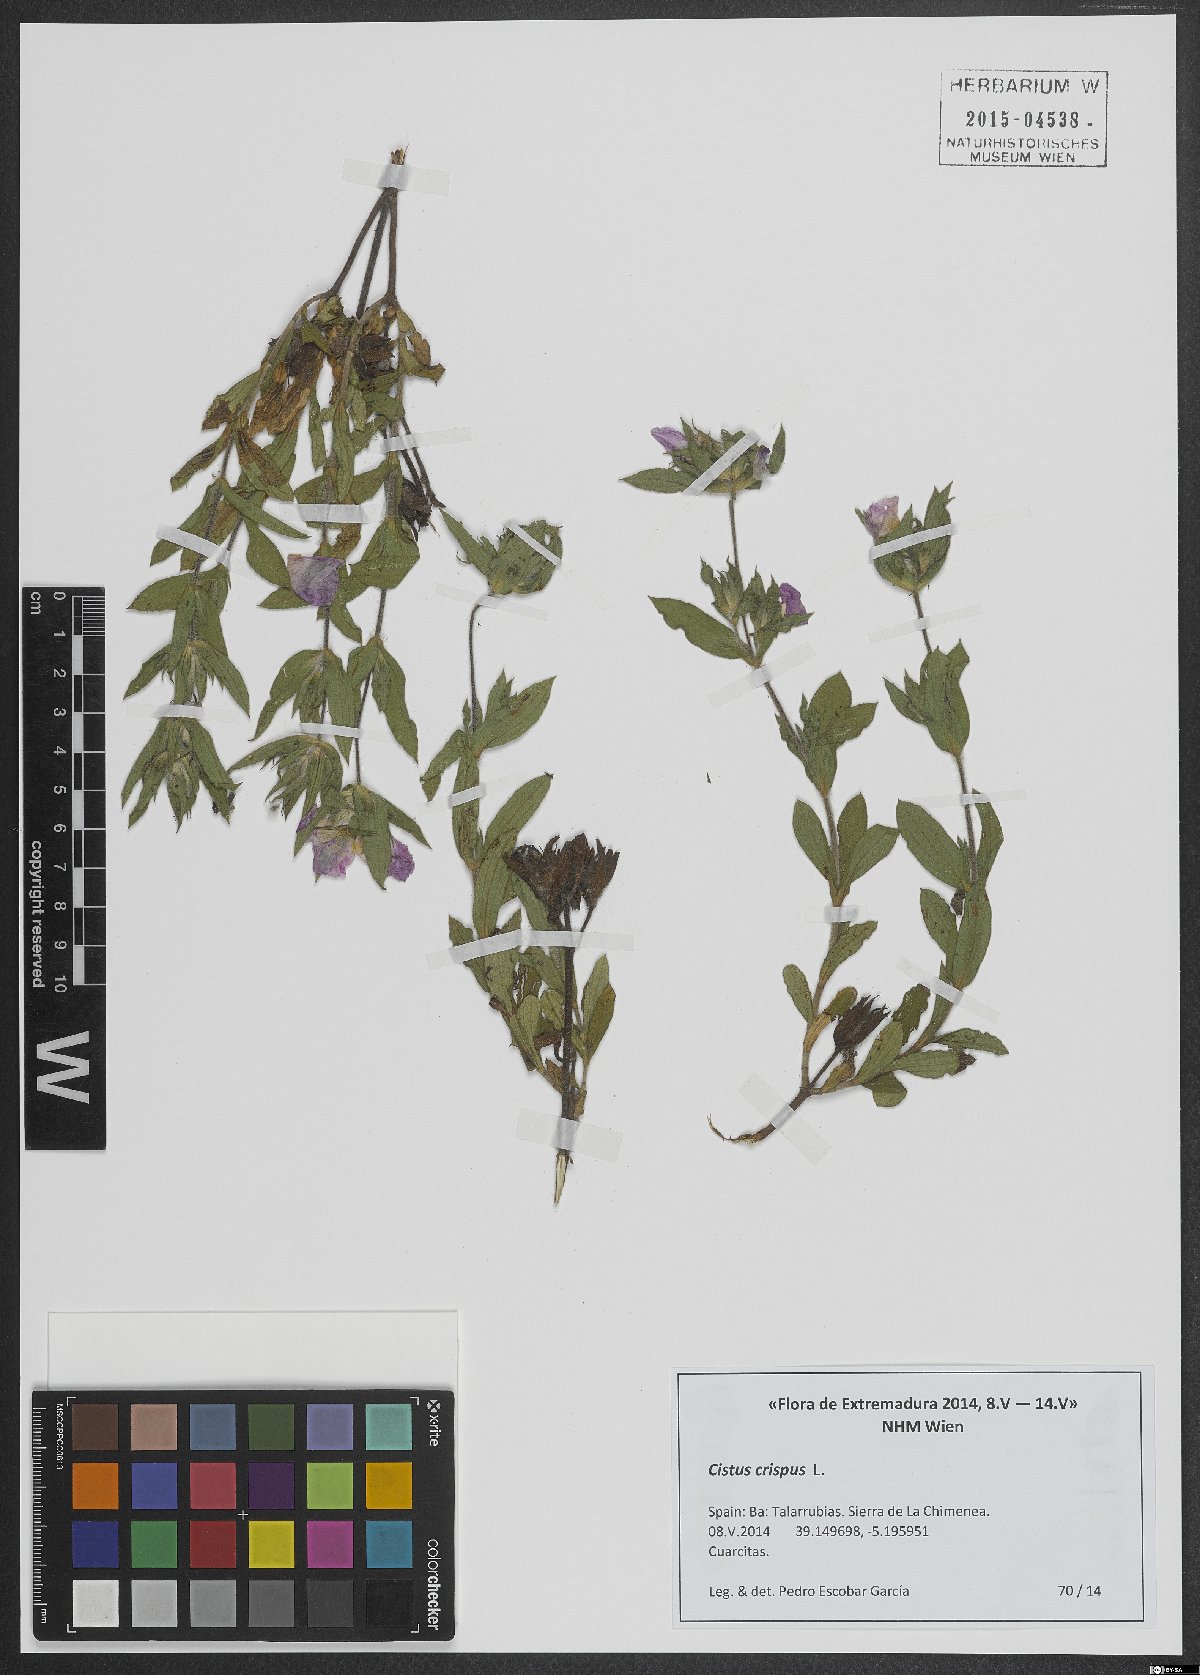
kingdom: Plantae
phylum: Tracheophyta
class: Magnoliopsida
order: Malvales
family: Cistaceae
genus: Cistus
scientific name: Cistus crispus
